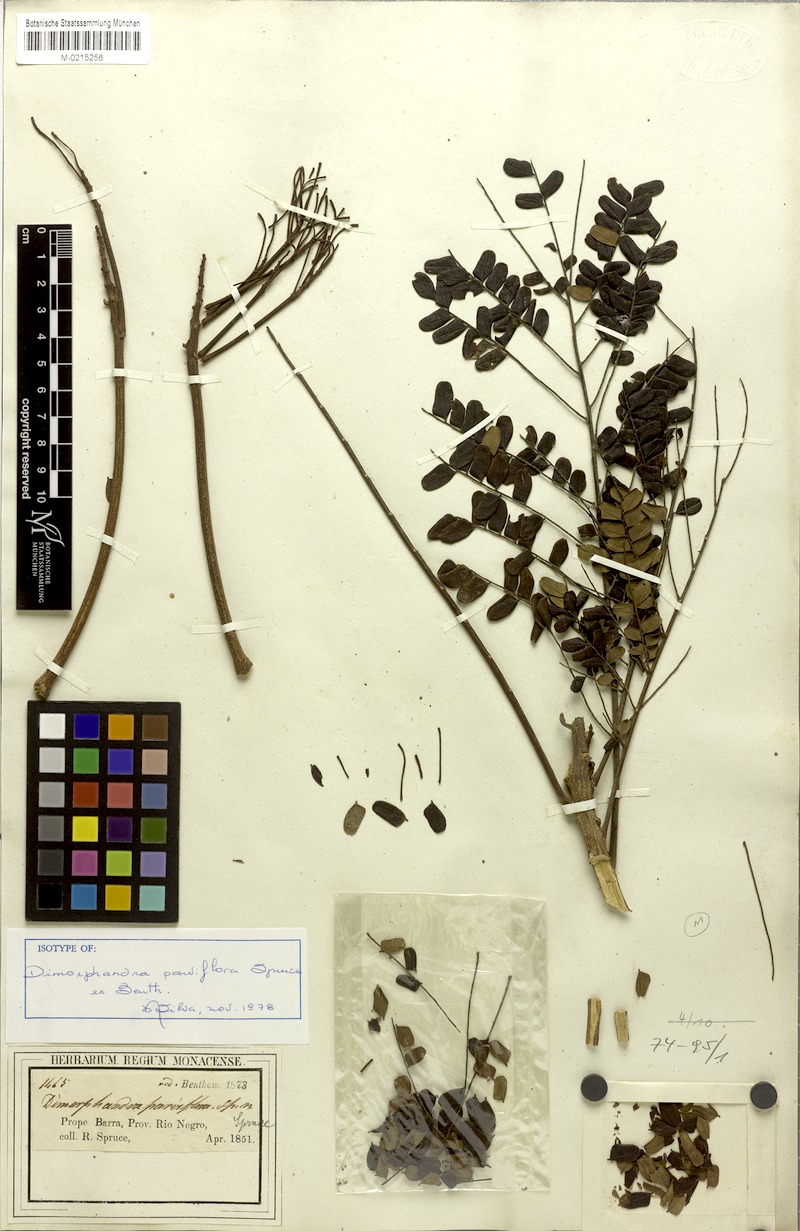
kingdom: Plantae
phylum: Tracheophyta
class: Magnoliopsida
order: Fabales
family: Fabaceae
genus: Dimorphandra
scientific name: Dimorphandra parviflora
